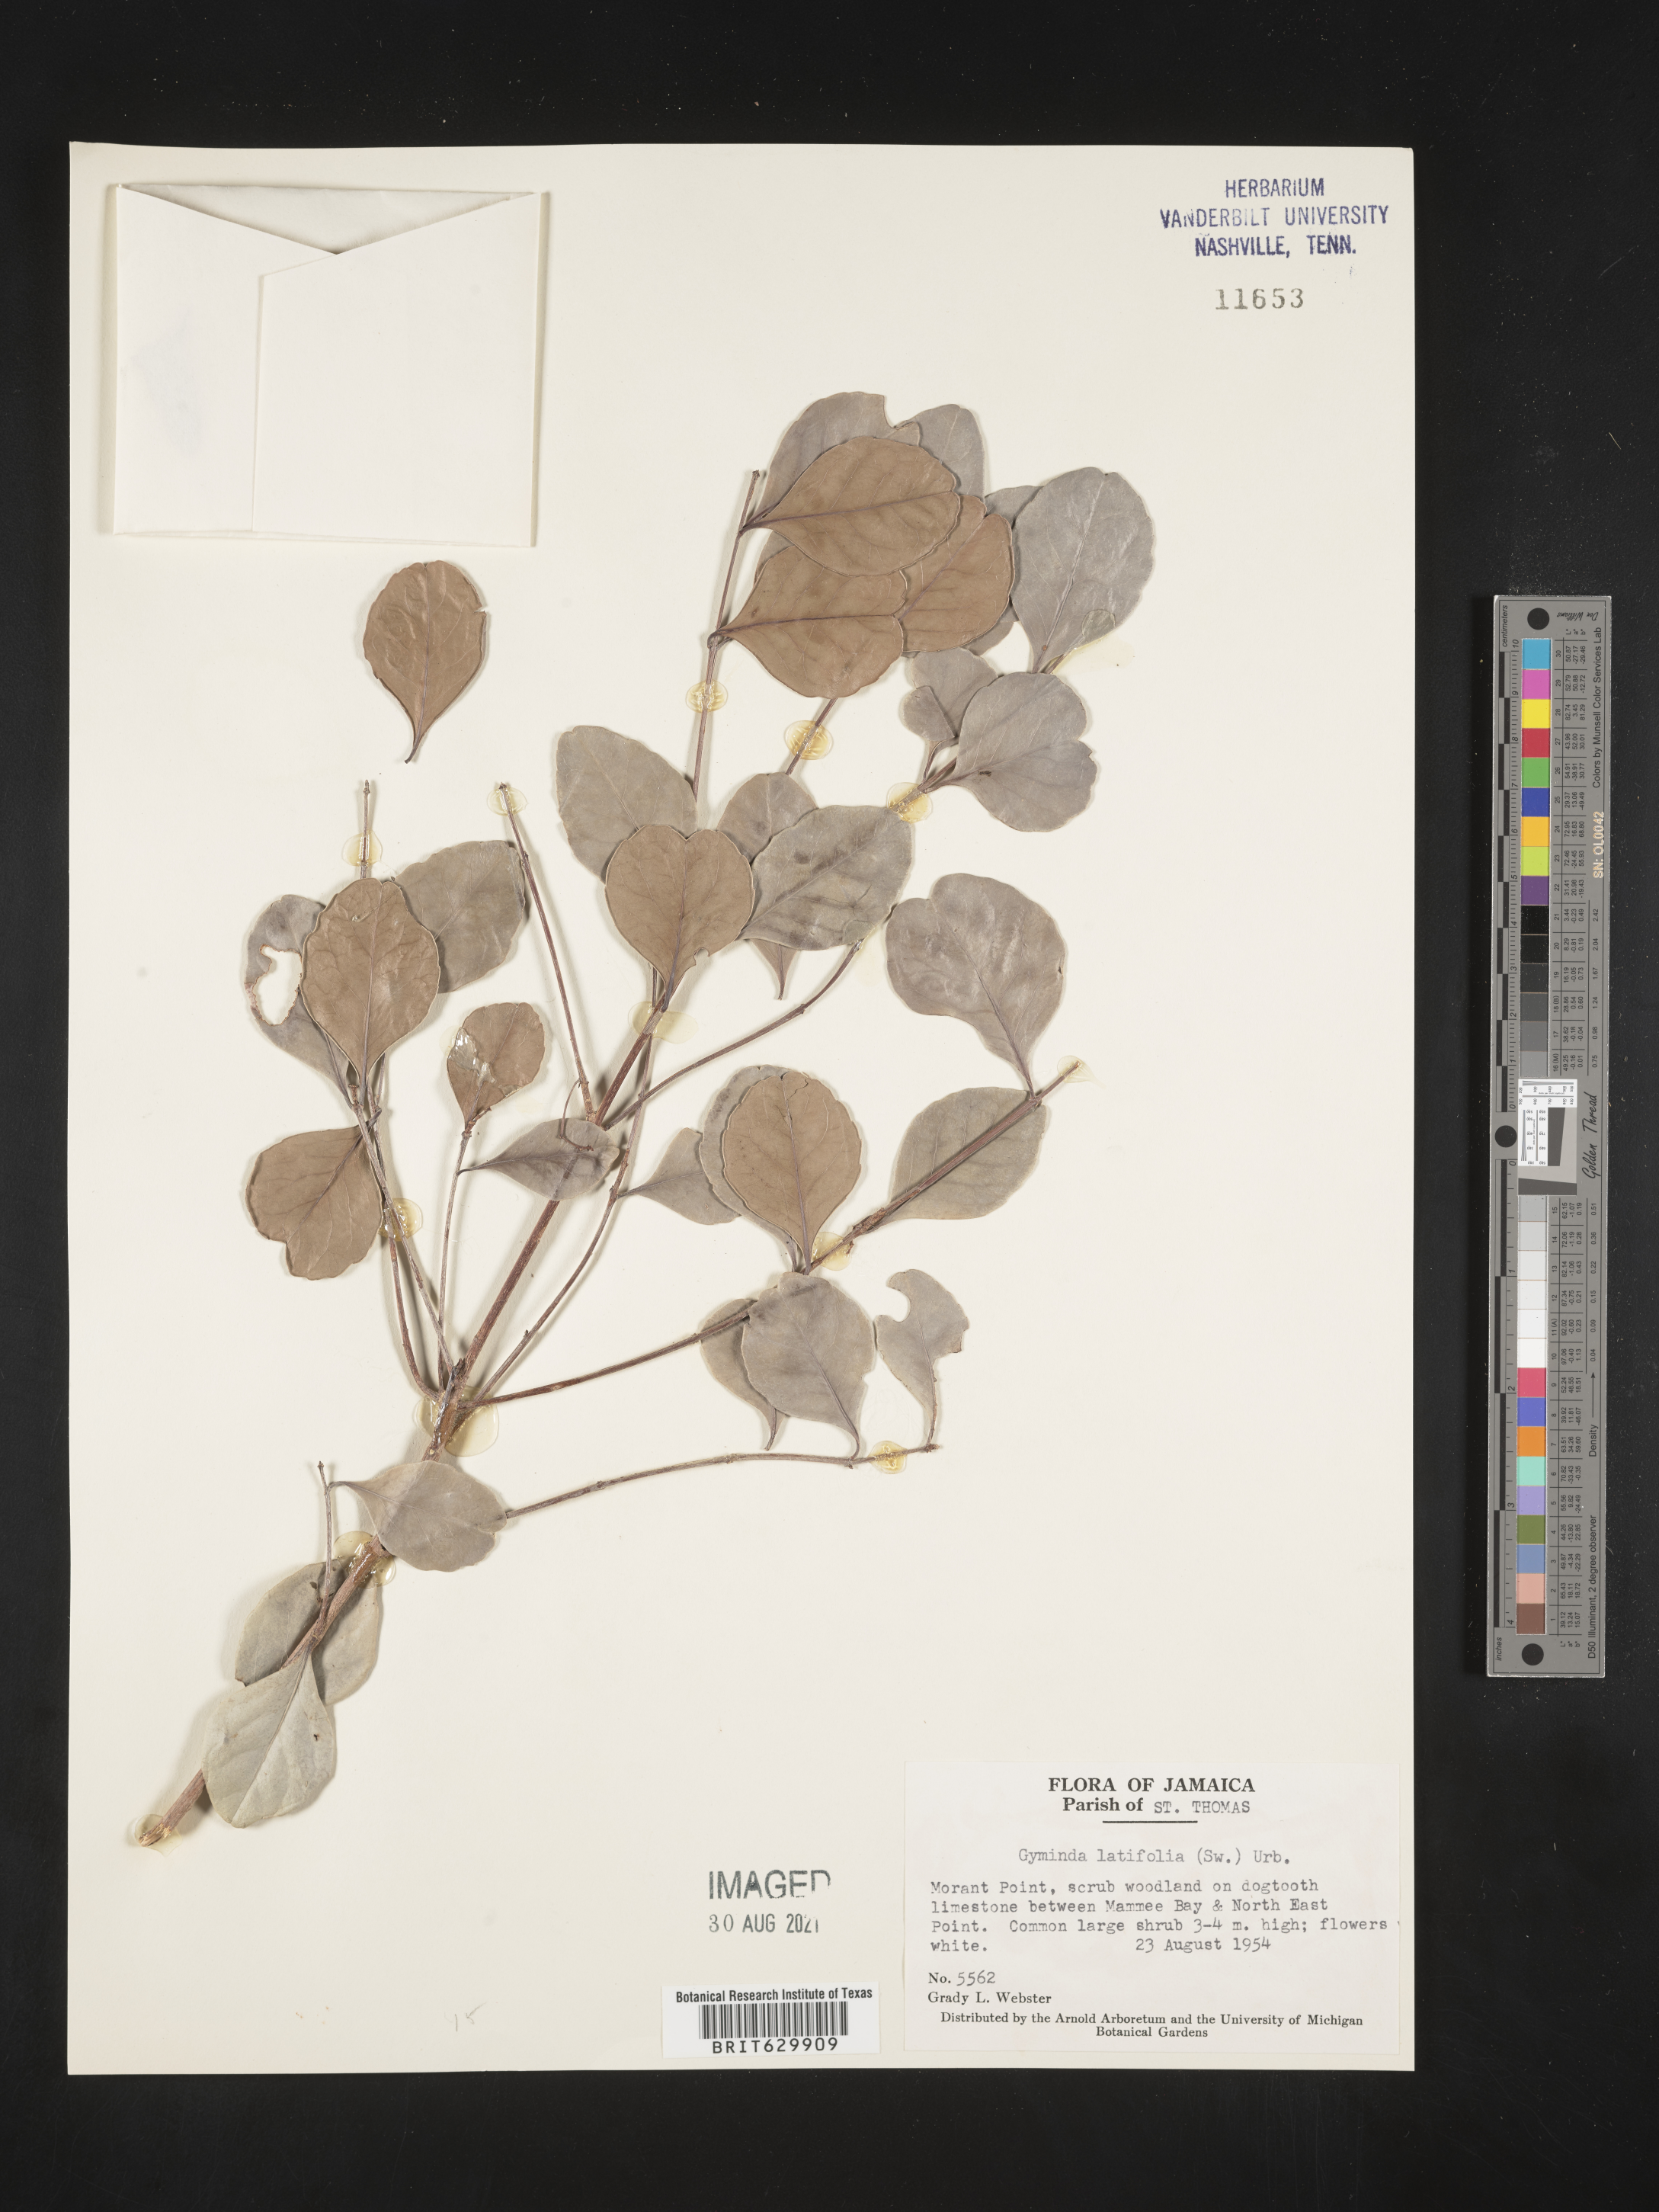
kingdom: Plantae
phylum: Tracheophyta
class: Magnoliopsida
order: Celastrales
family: Celastraceae
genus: Gyminda
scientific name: Gyminda latifolia
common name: False boxwood
